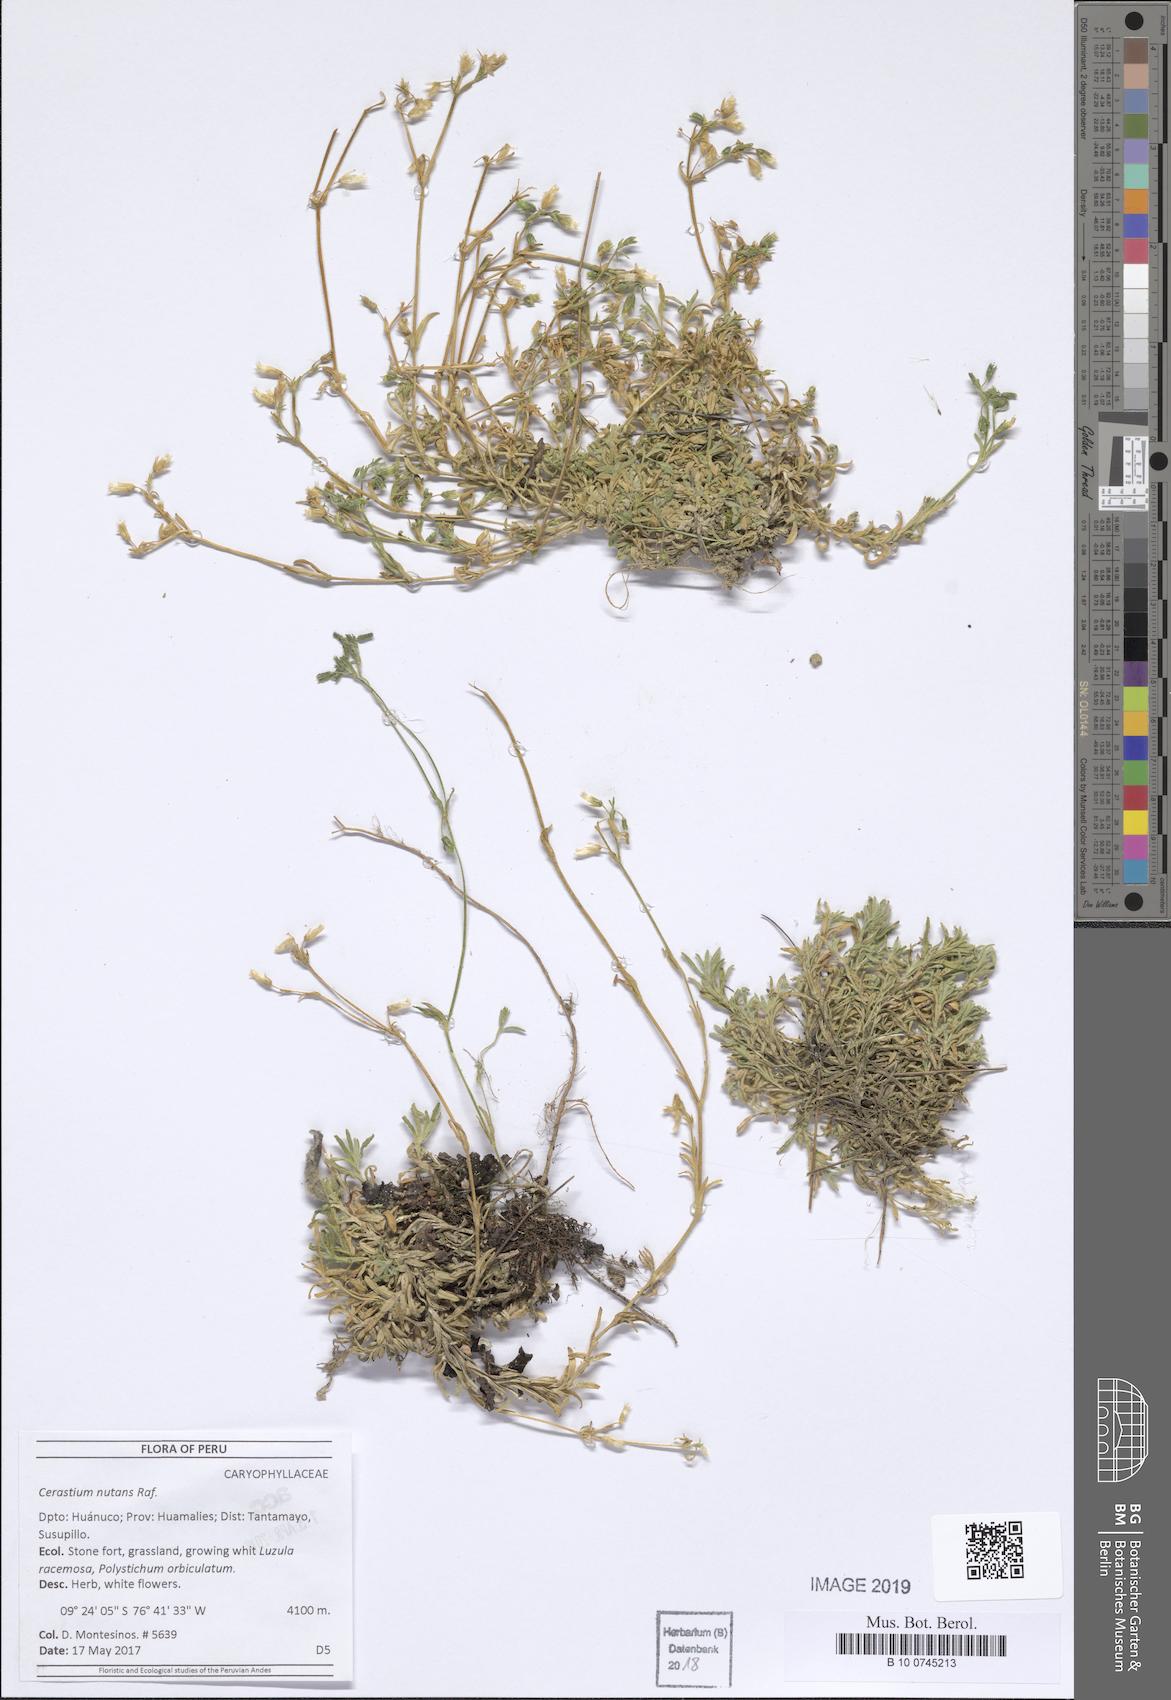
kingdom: Plantae
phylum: Tracheophyta
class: Magnoliopsida
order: Caryophyllales
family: Caryophyllaceae
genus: Cerastium
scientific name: Cerastium nutans
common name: Long-stalked chickweed
